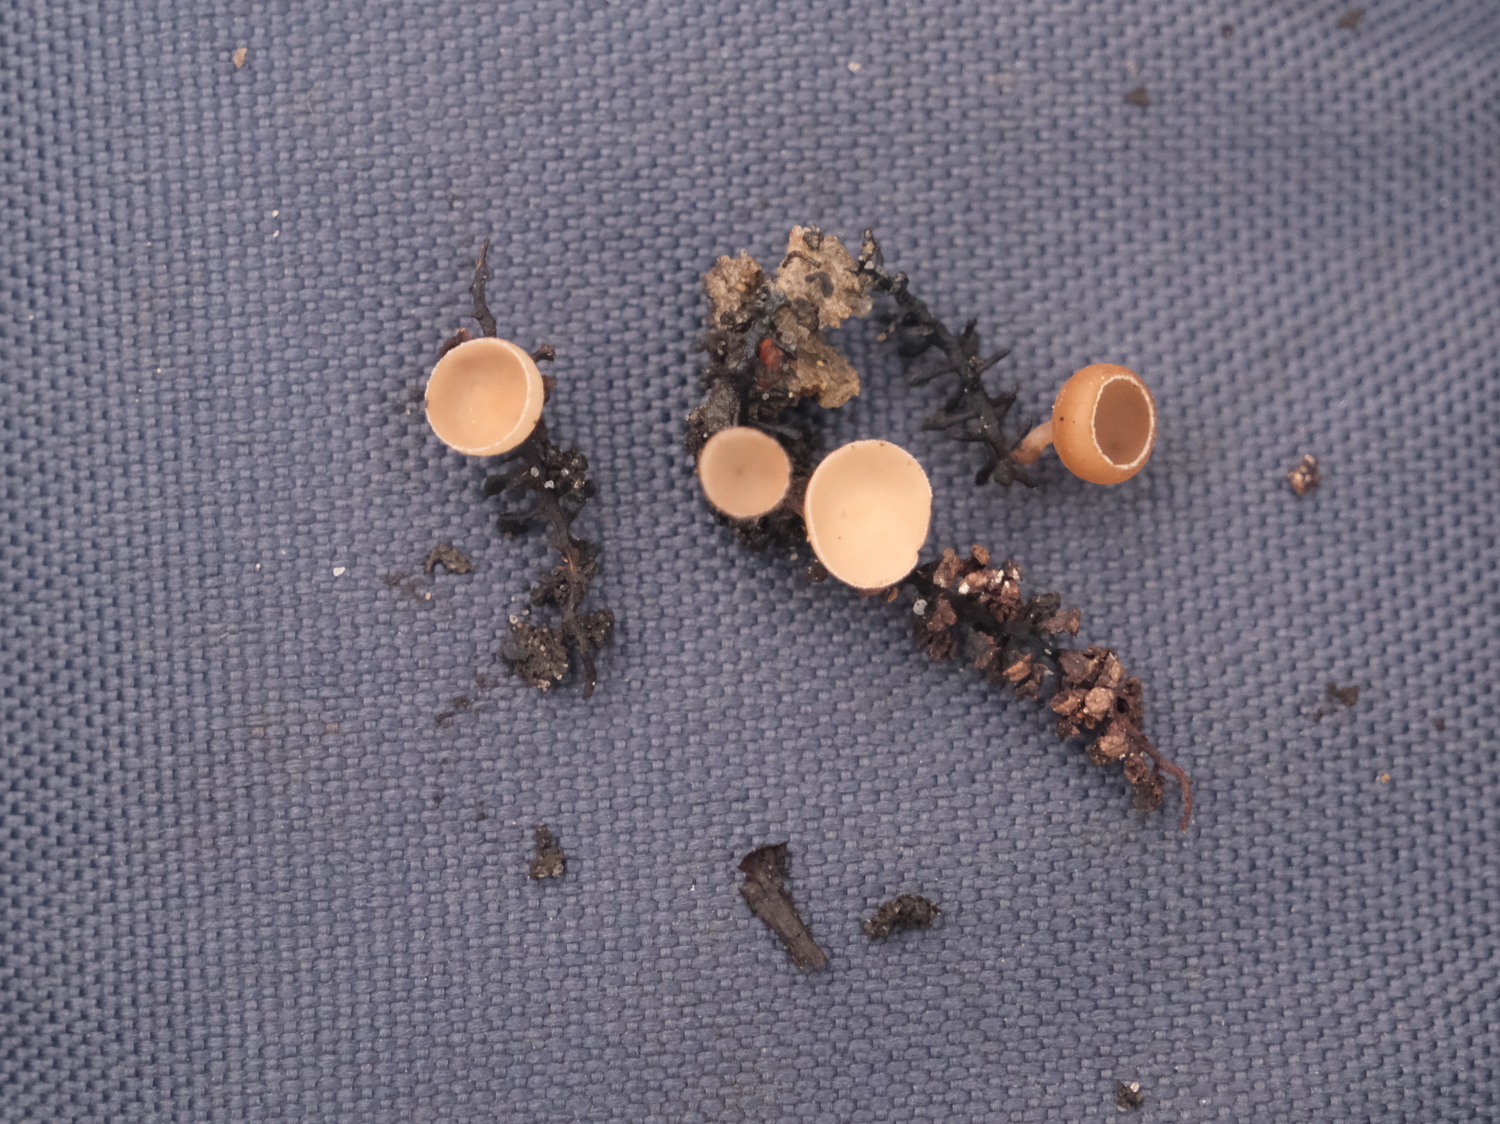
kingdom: Fungi
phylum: Ascomycota
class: Leotiomycetes
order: Helotiales
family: Sclerotiniaceae
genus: Ciboria
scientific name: Ciboria amentacea
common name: ellerakle-knoldskive
